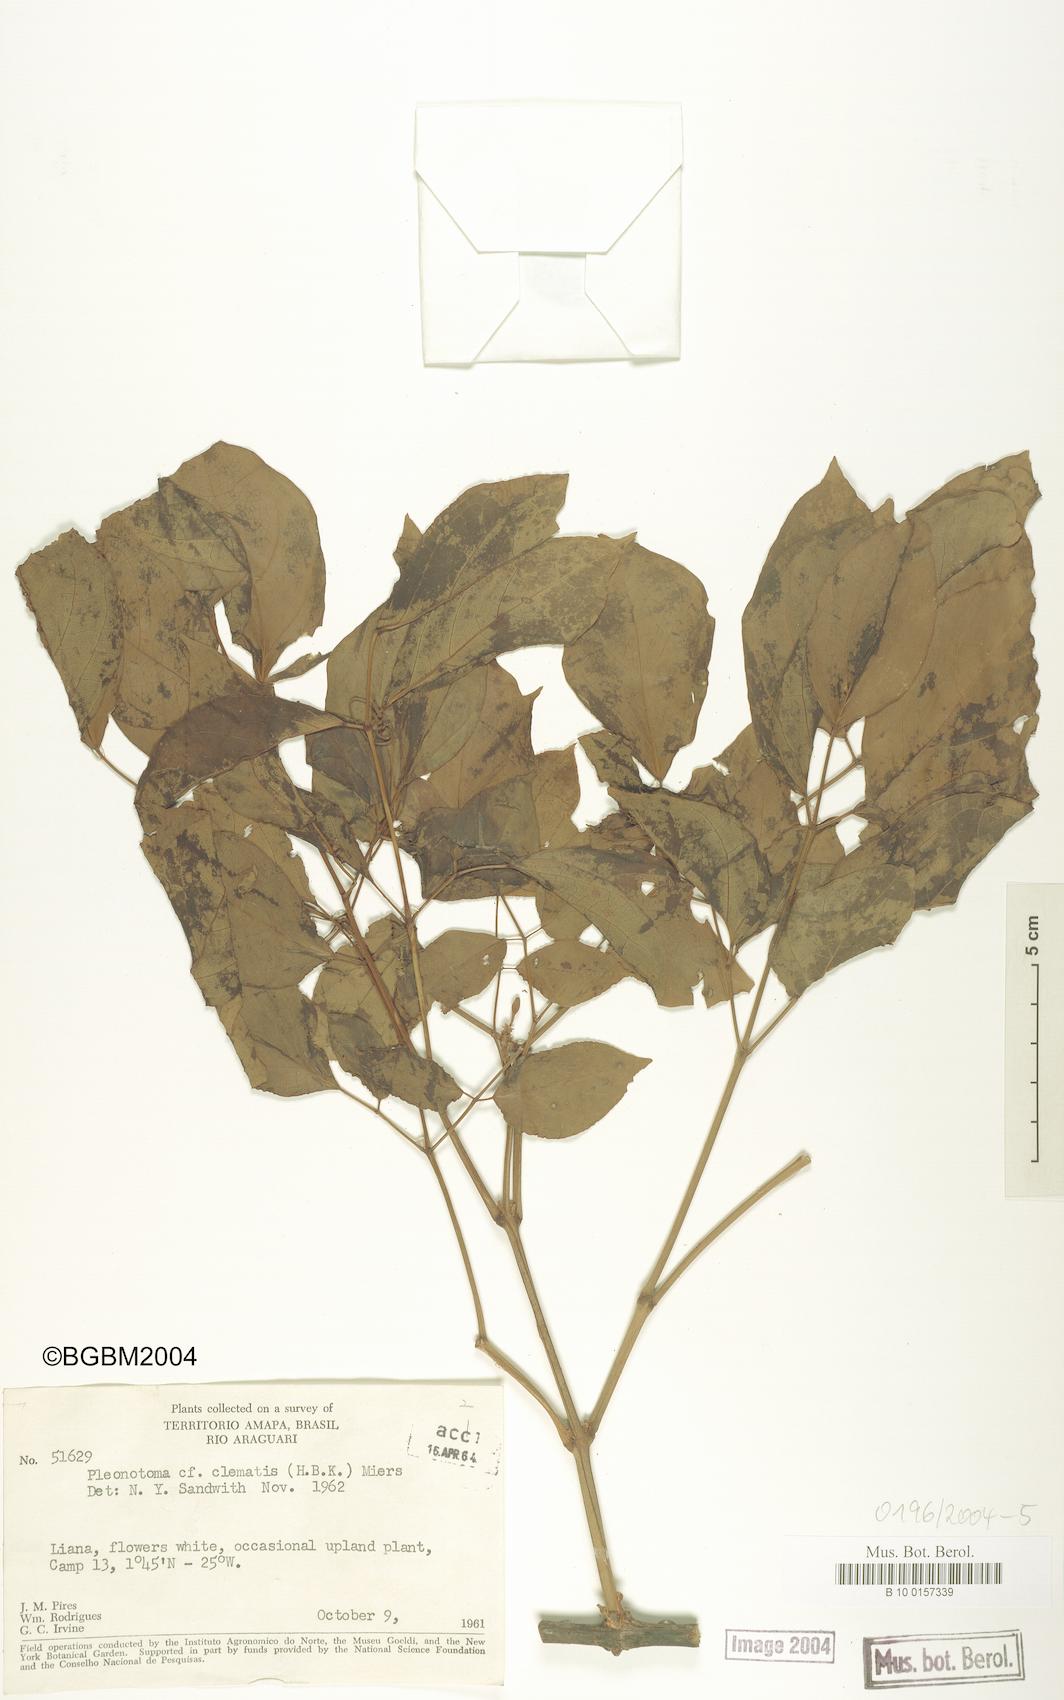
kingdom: Plantae
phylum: Tracheophyta
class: Magnoliopsida
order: Lamiales
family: Bignoniaceae
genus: Pleonotoma
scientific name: Pleonotoma clematis
